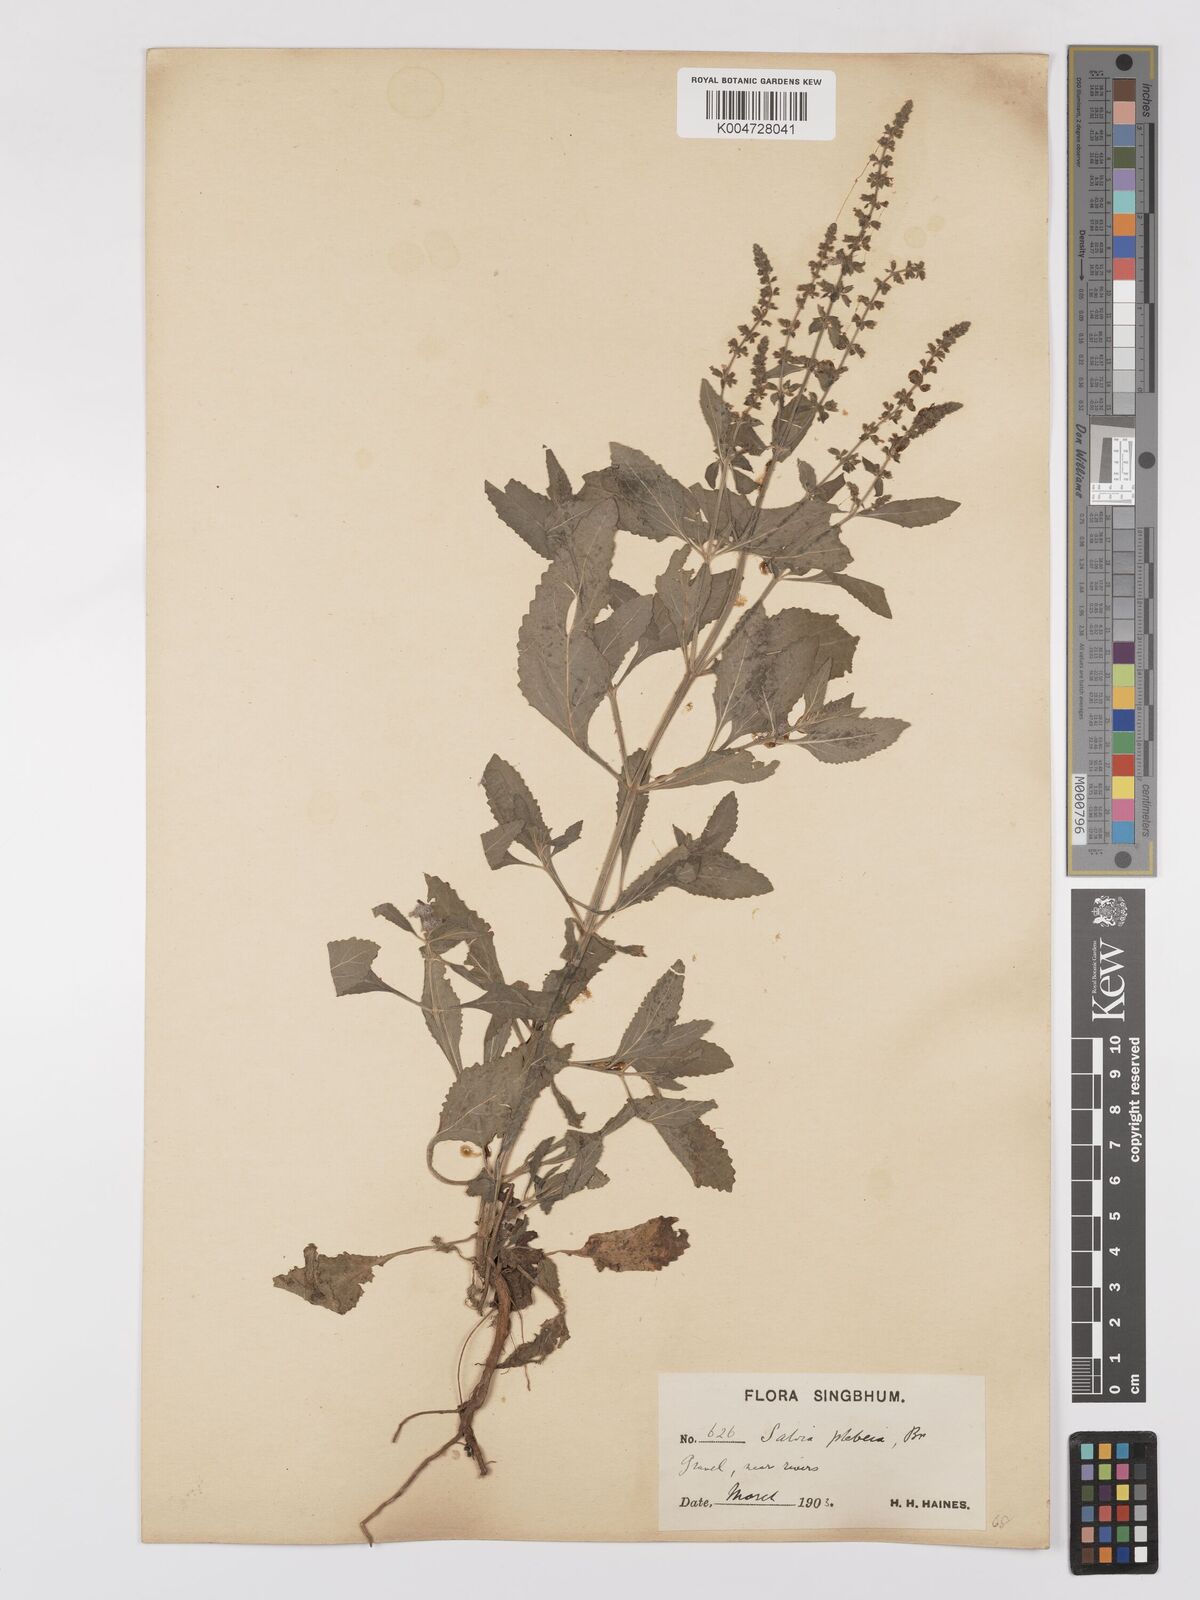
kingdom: Plantae
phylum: Tracheophyta
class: Magnoliopsida
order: Lamiales
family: Lamiaceae
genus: Salvia
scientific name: Salvia plebeia
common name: Australian sage
